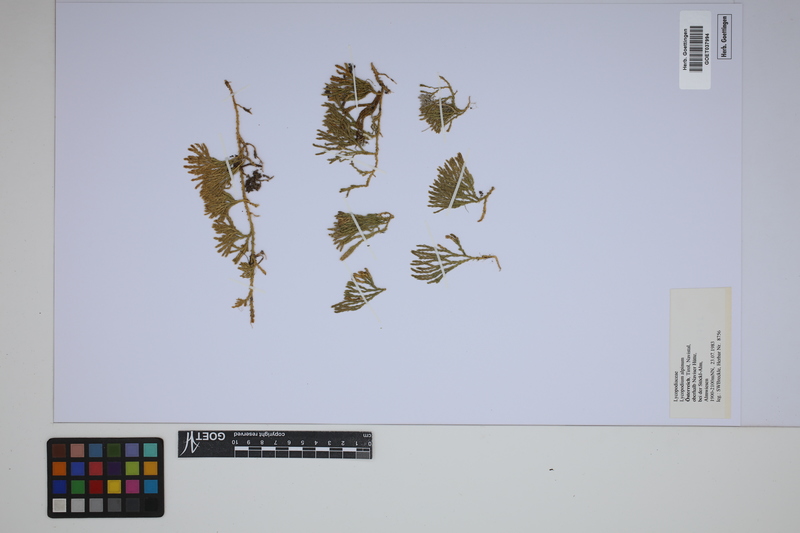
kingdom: Plantae
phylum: Tracheophyta
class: Lycopodiopsida
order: Lycopodiales
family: Lycopodiaceae
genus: Diphasiastrum
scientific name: Diphasiastrum alpinum
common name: Alpine clubmoss
